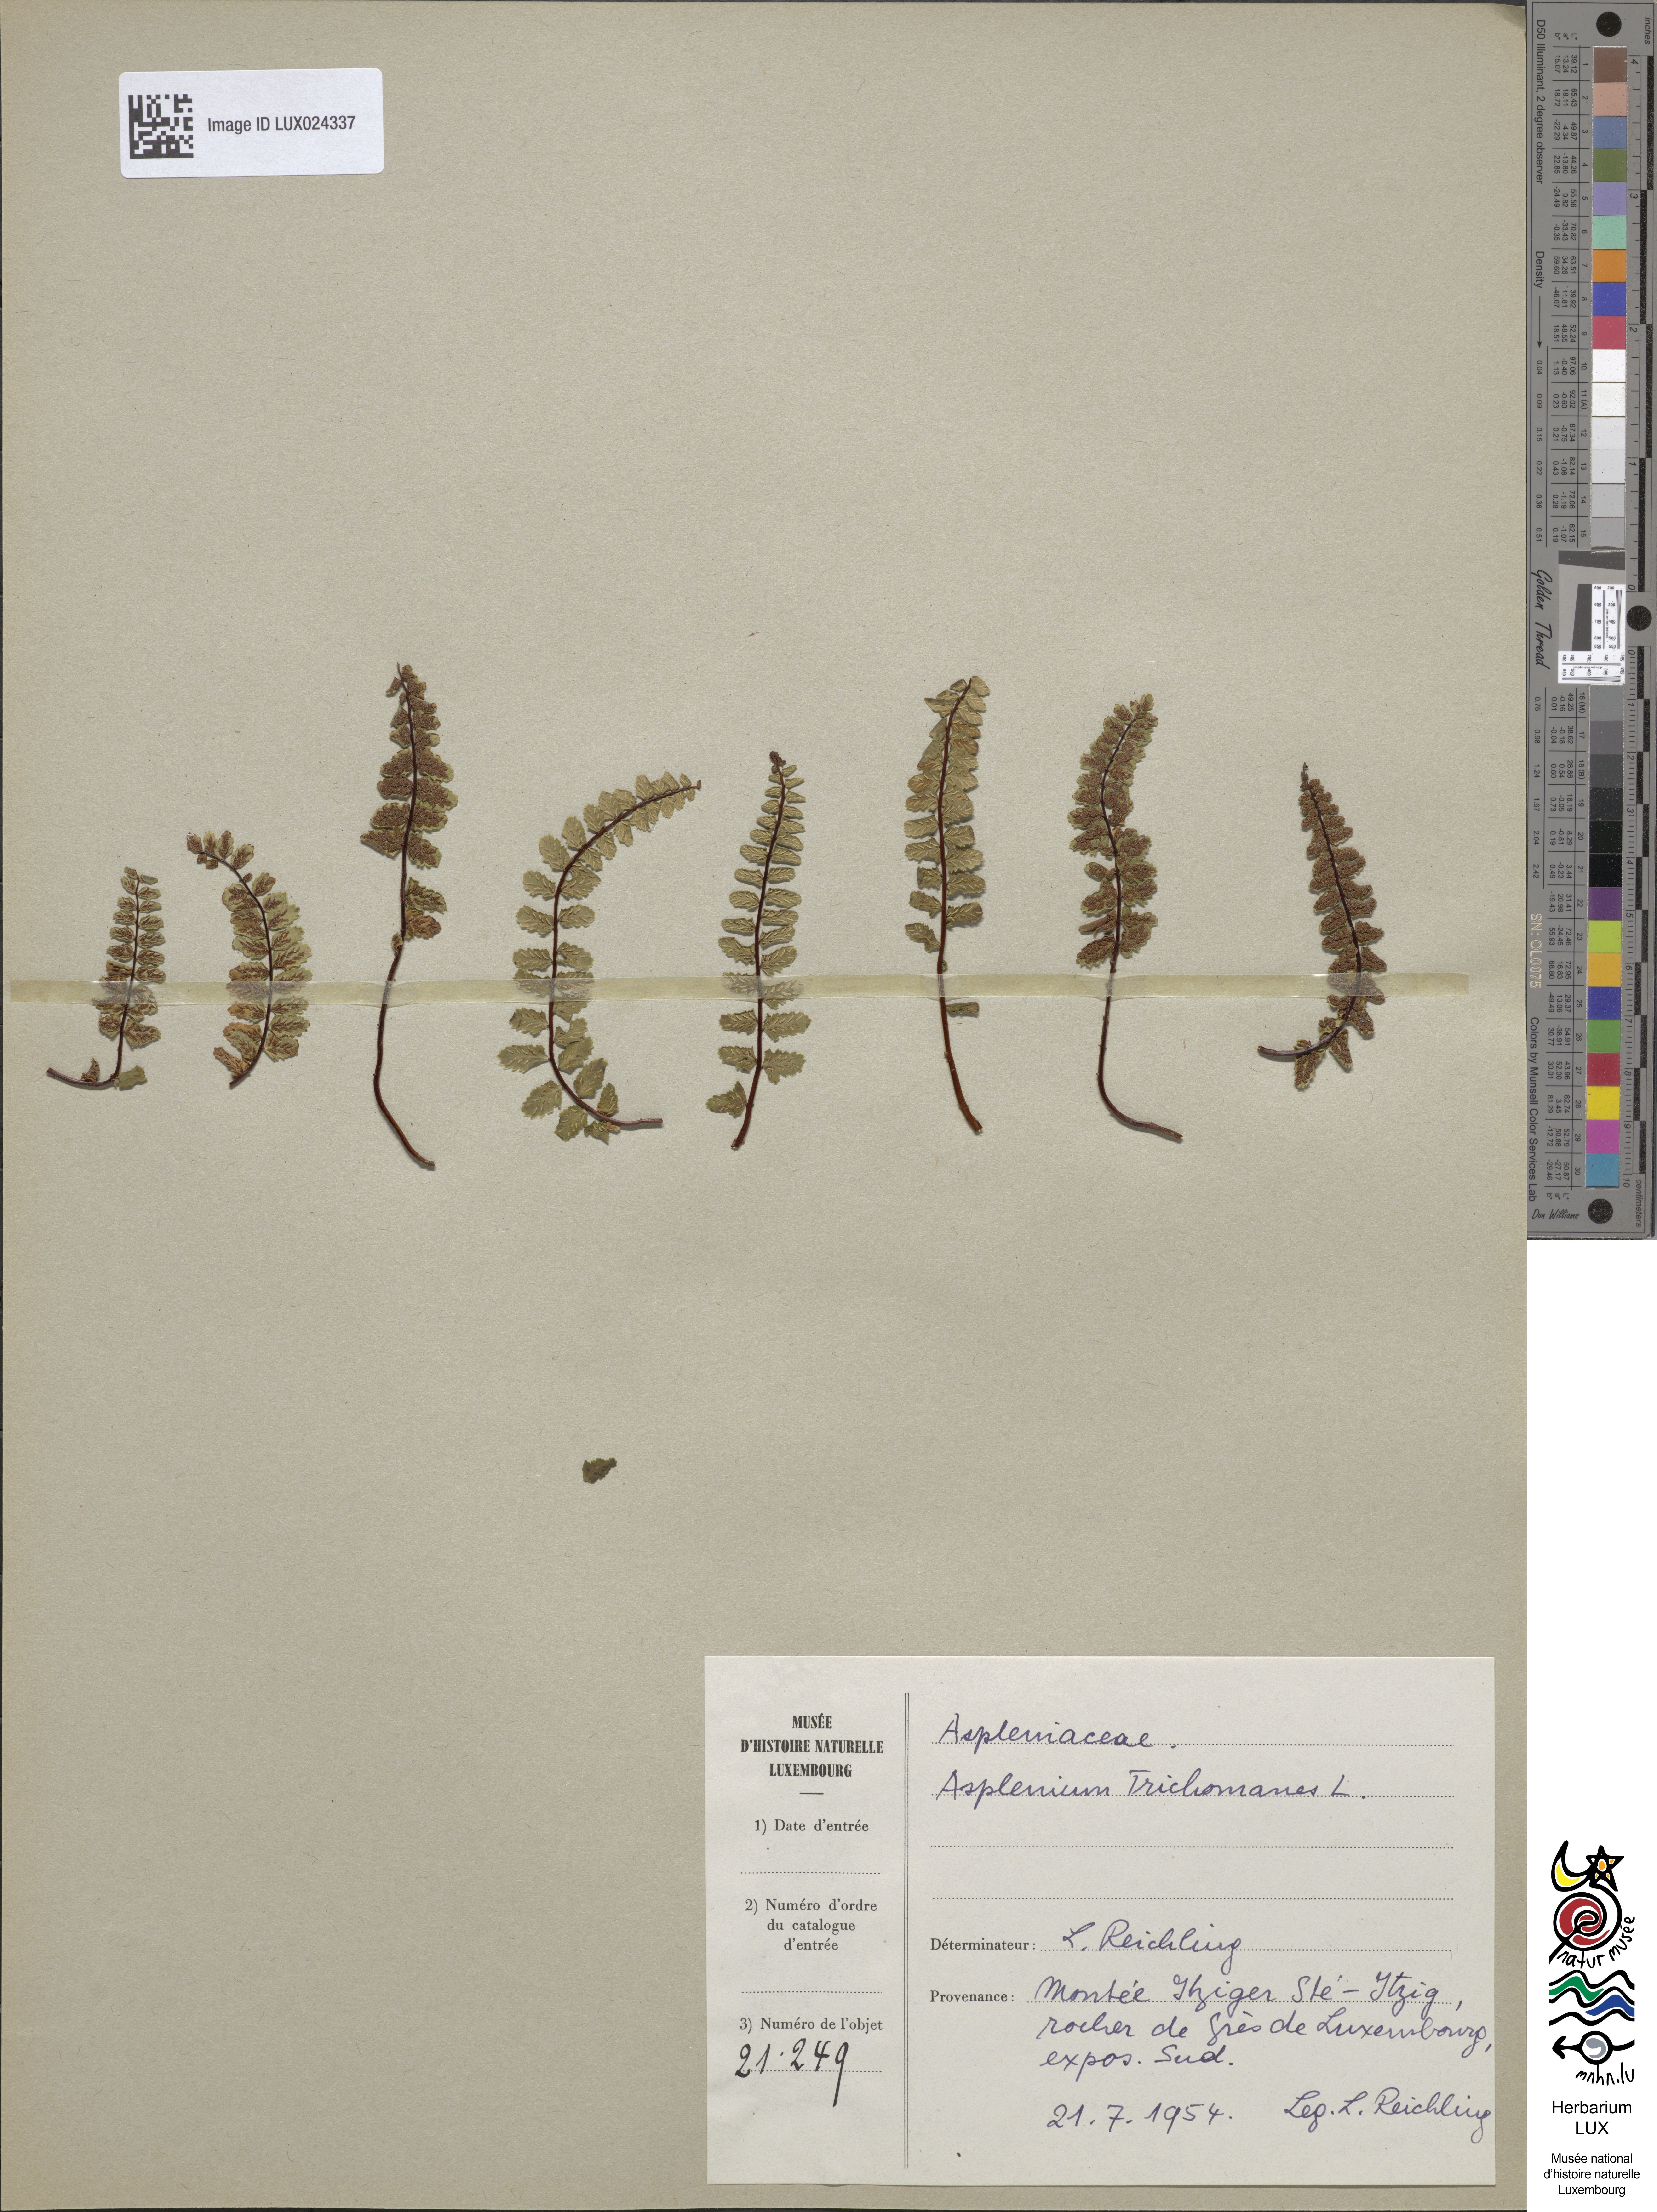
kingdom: Plantae
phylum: Tracheophyta
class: Polypodiopsida
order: Polypodiales
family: Aspleniaceae
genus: Asplenium
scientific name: Asplenium trichomanes
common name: Maidenhair spleenwort
